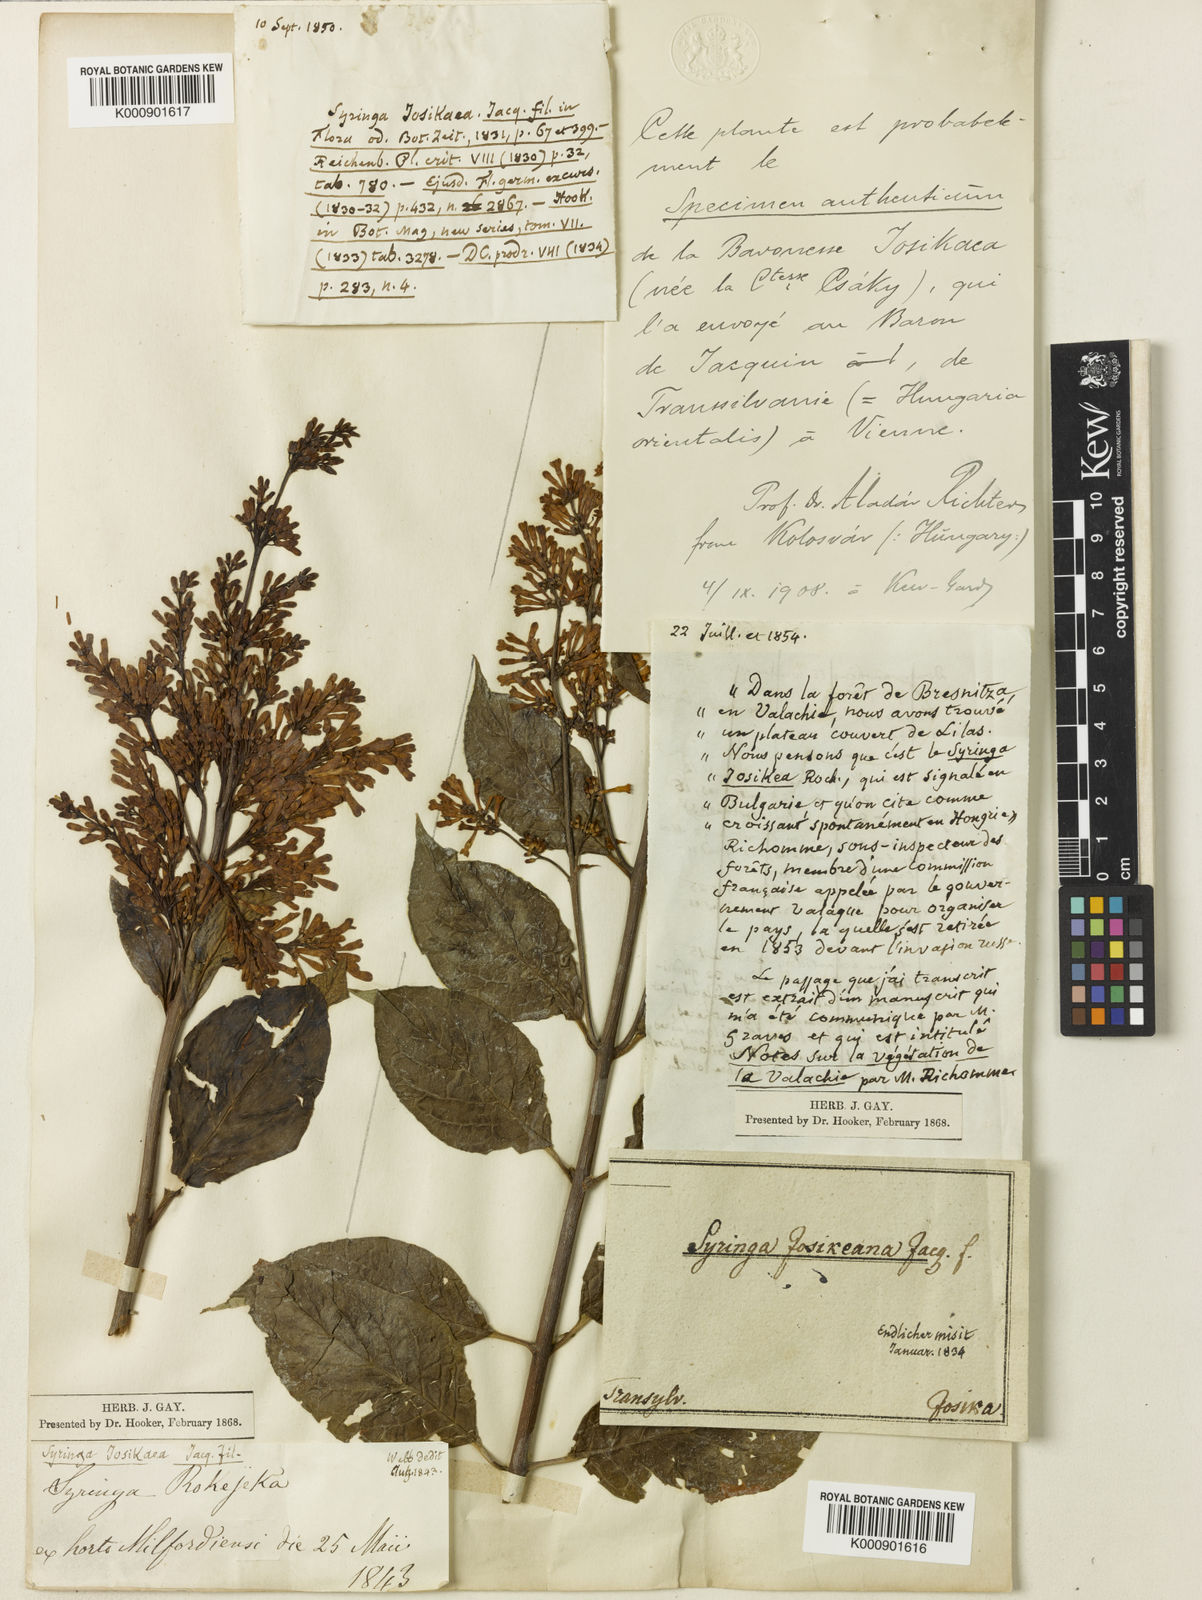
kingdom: Plantae
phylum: Tracheophyta
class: Magnoliopsida
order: Lamiales
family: Oleaceae
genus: Syringa
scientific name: Syringa
